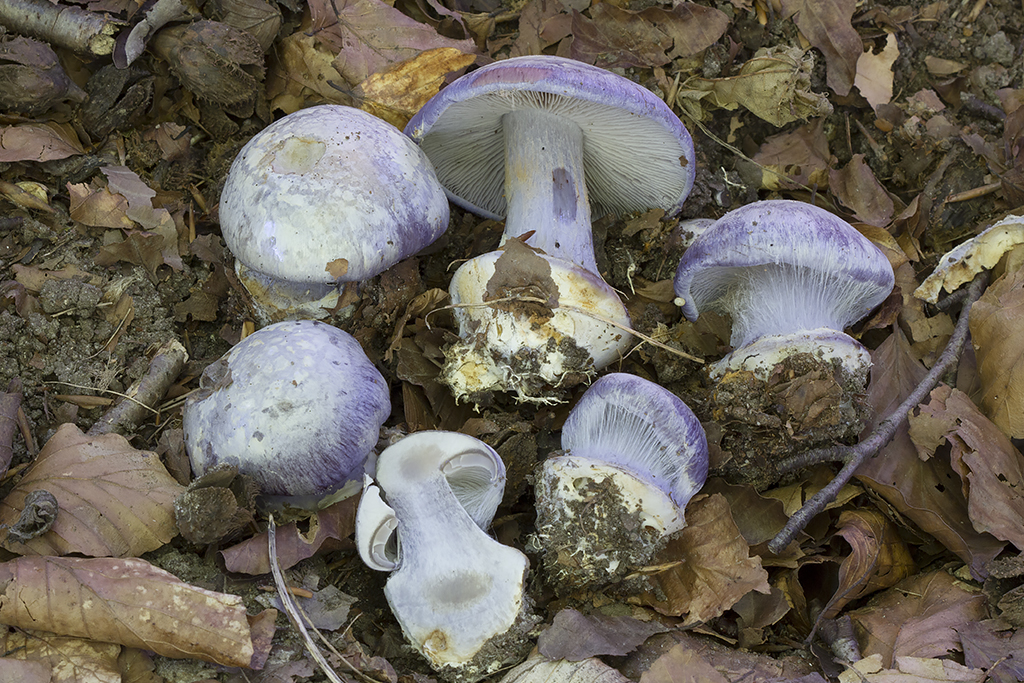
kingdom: Fungi
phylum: Basidiomycota
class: Agaricomycetes
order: Agaricales
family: Cortinariaceae
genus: Cortinarius
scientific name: Cortinarius caerulescens
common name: blåkødet slørhat
